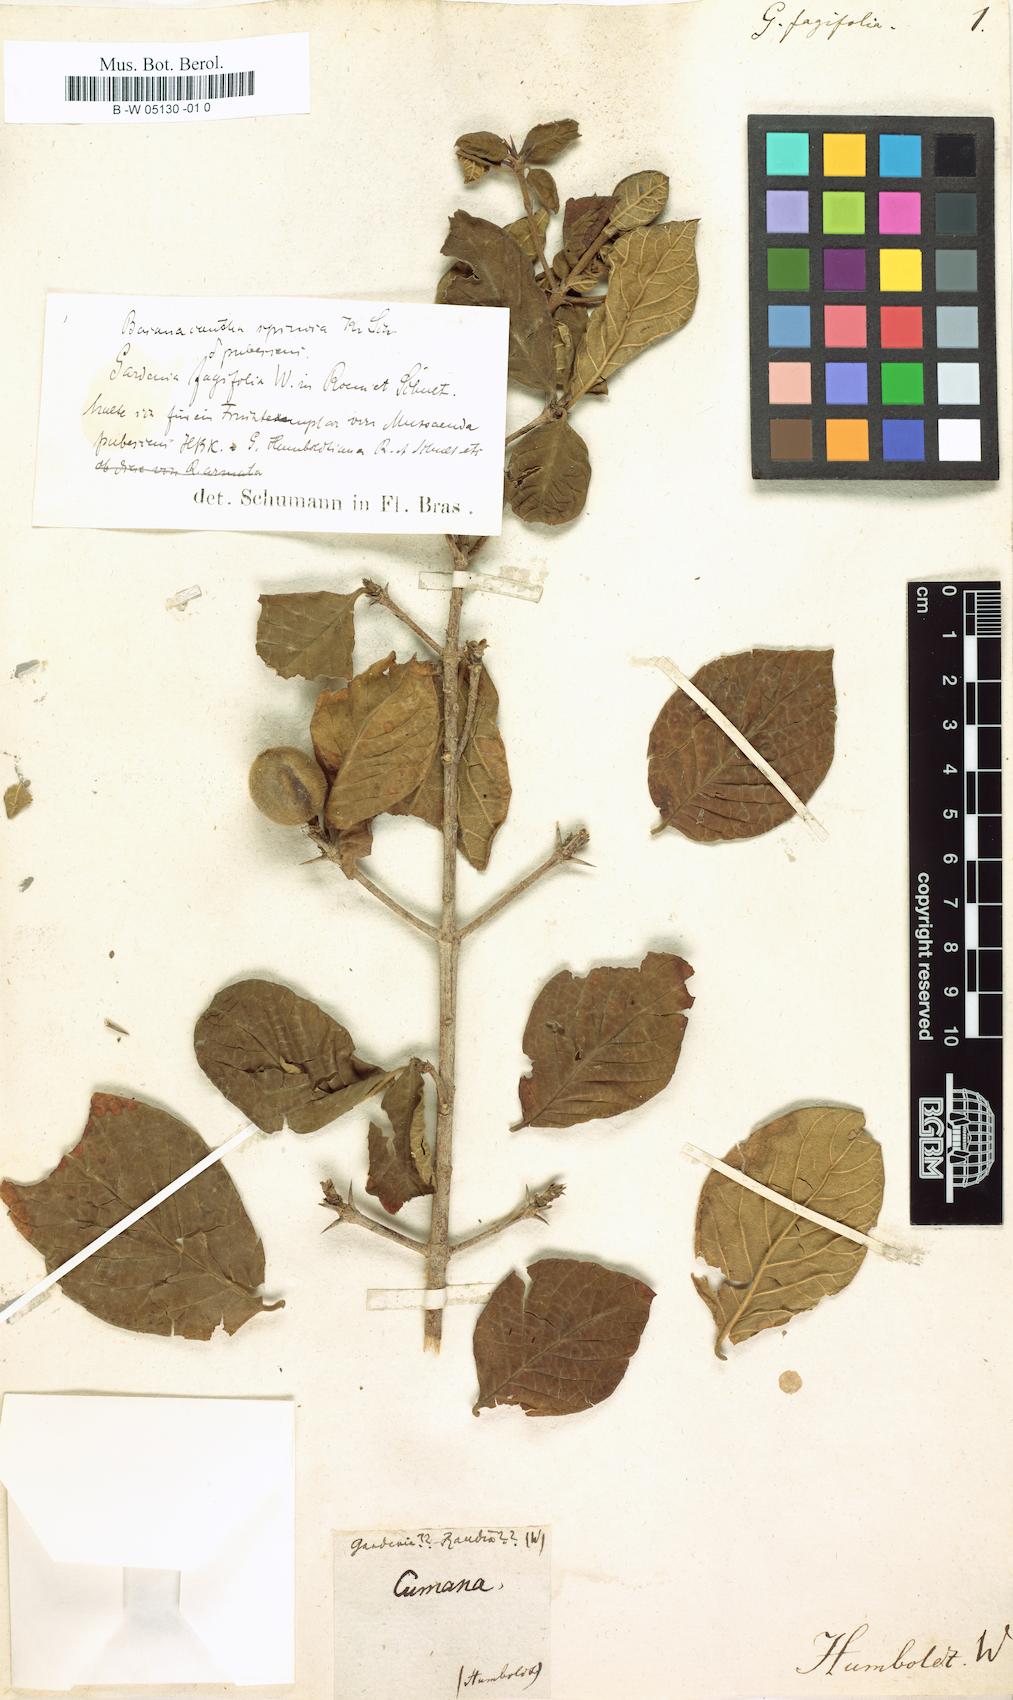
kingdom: Plantae
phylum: Tracheophyta
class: Magnoliopsida
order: Gentianales
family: Rubiaceae
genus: Randia
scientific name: Randia nitida
